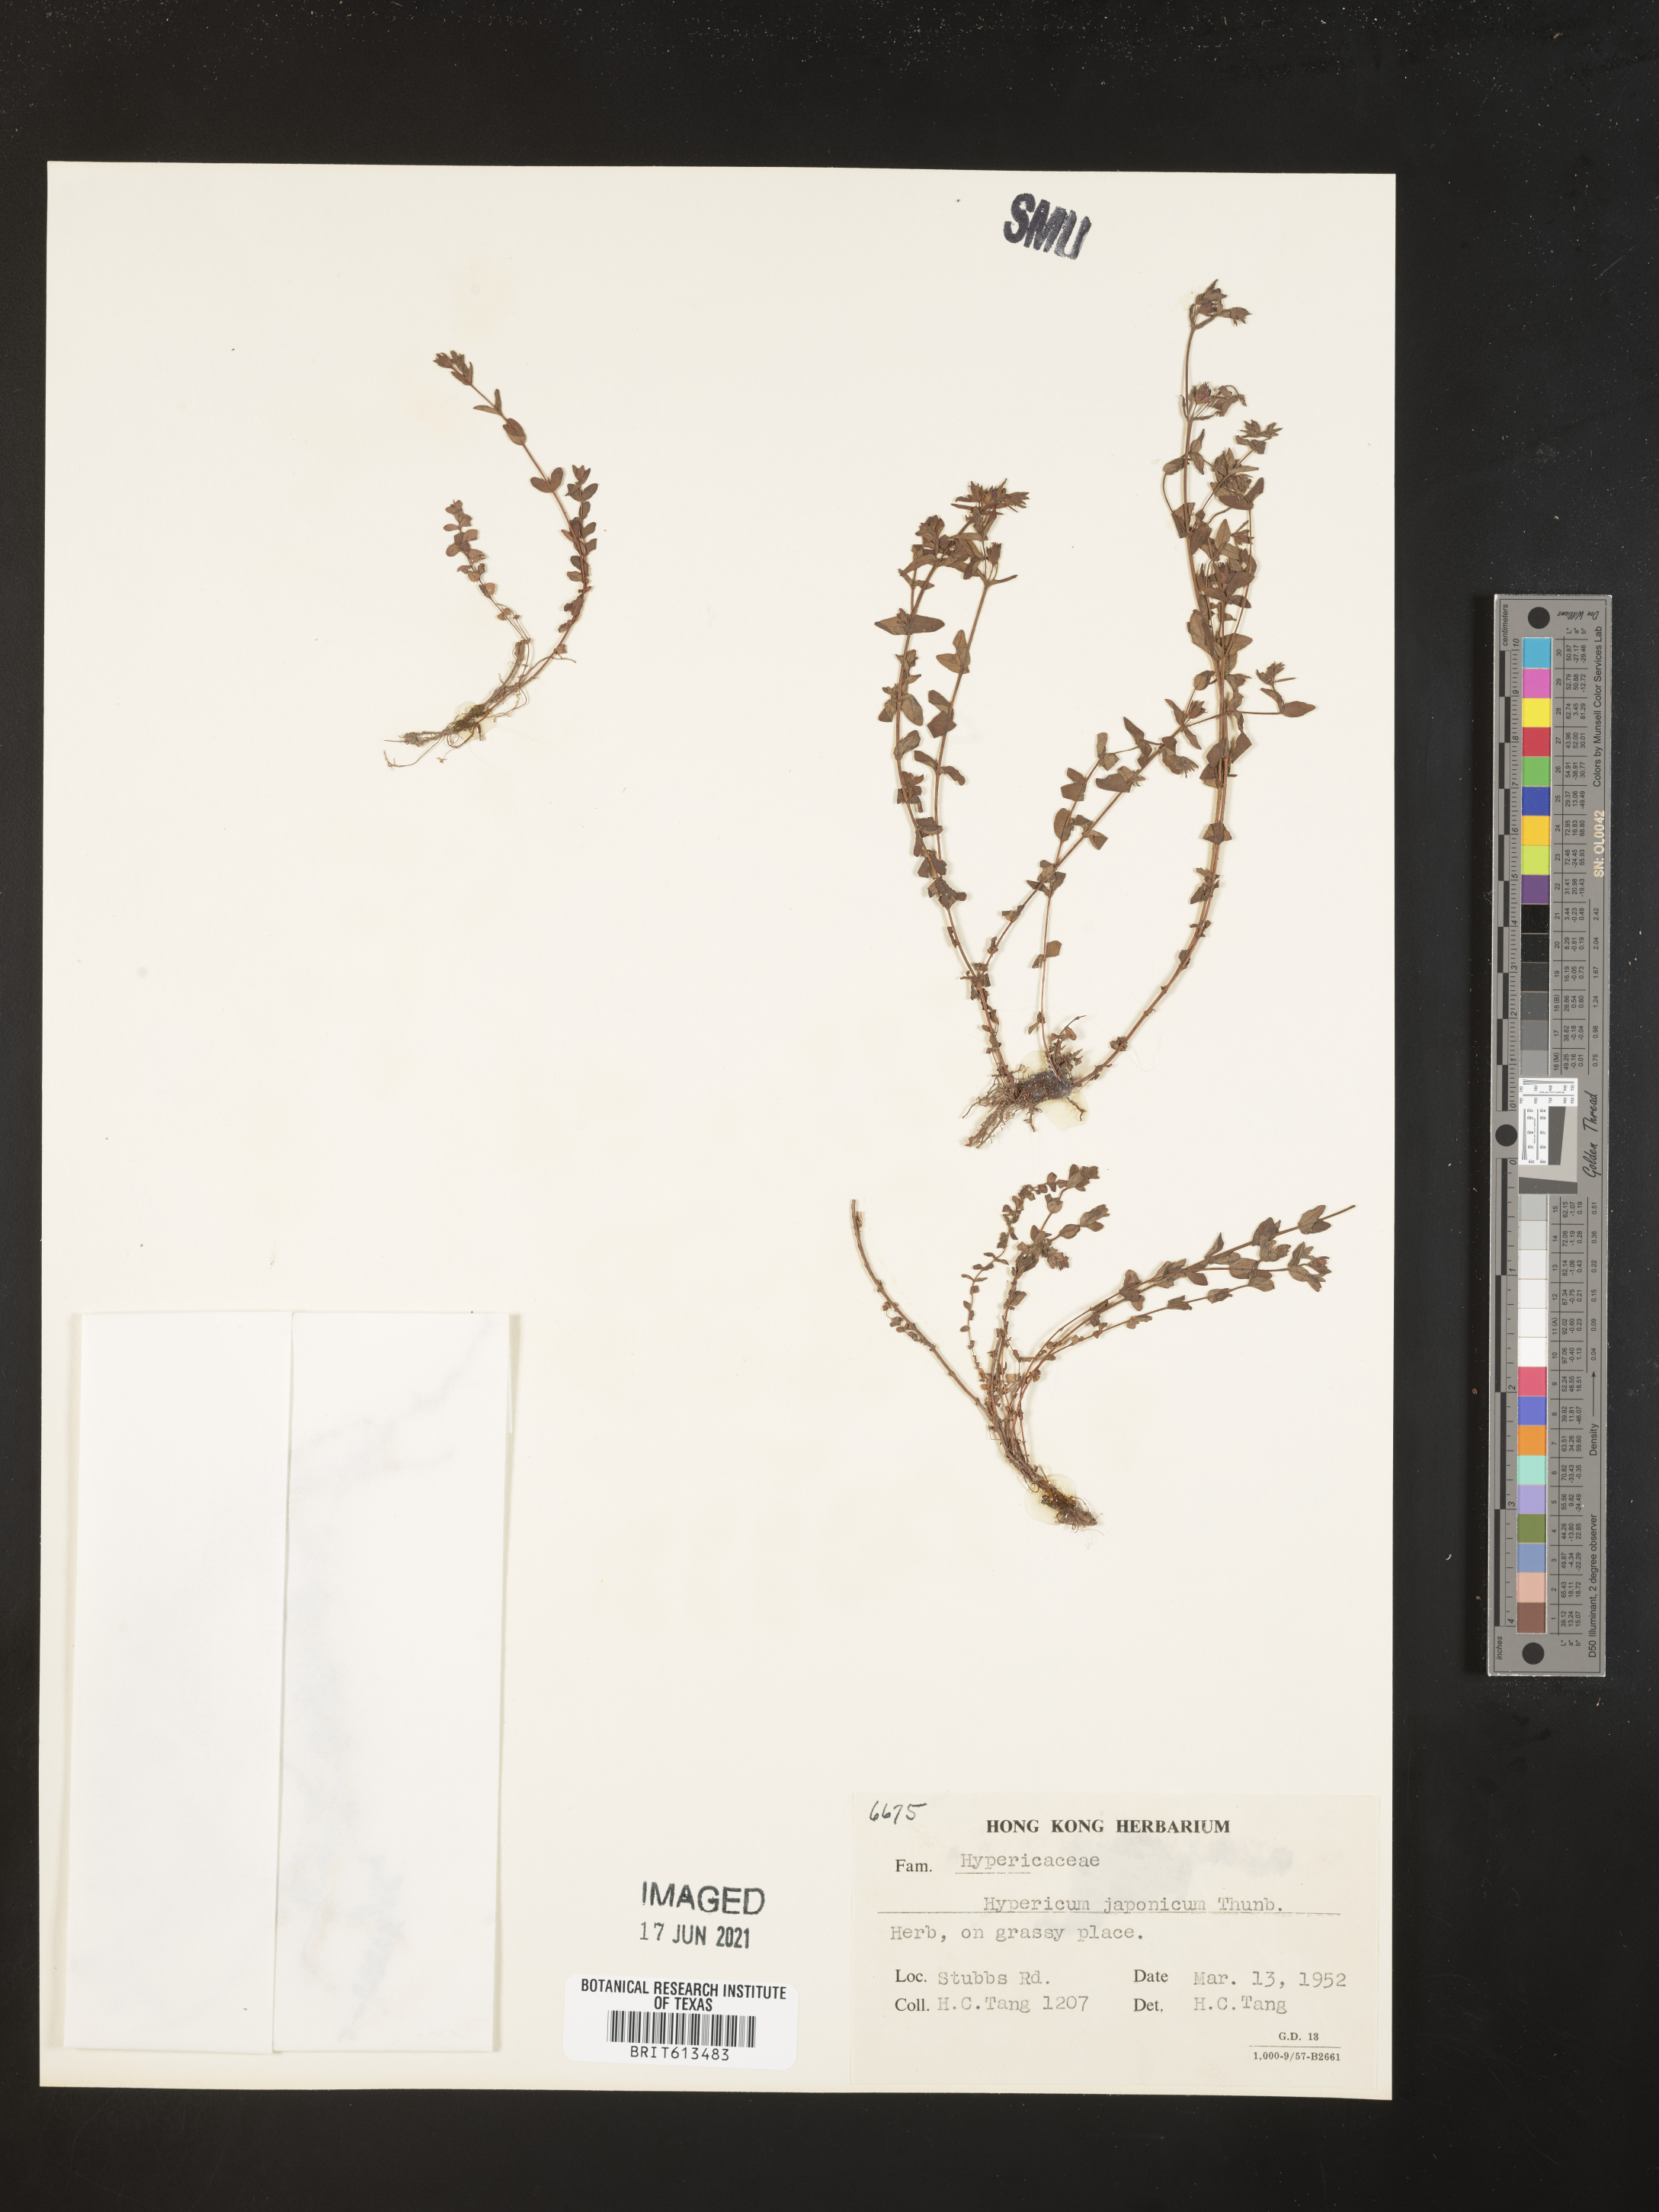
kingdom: Plantae
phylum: Tracheophyta
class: Magnoliopsida
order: Malpighiales
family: Hypericaceae
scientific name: Hypericaceae
